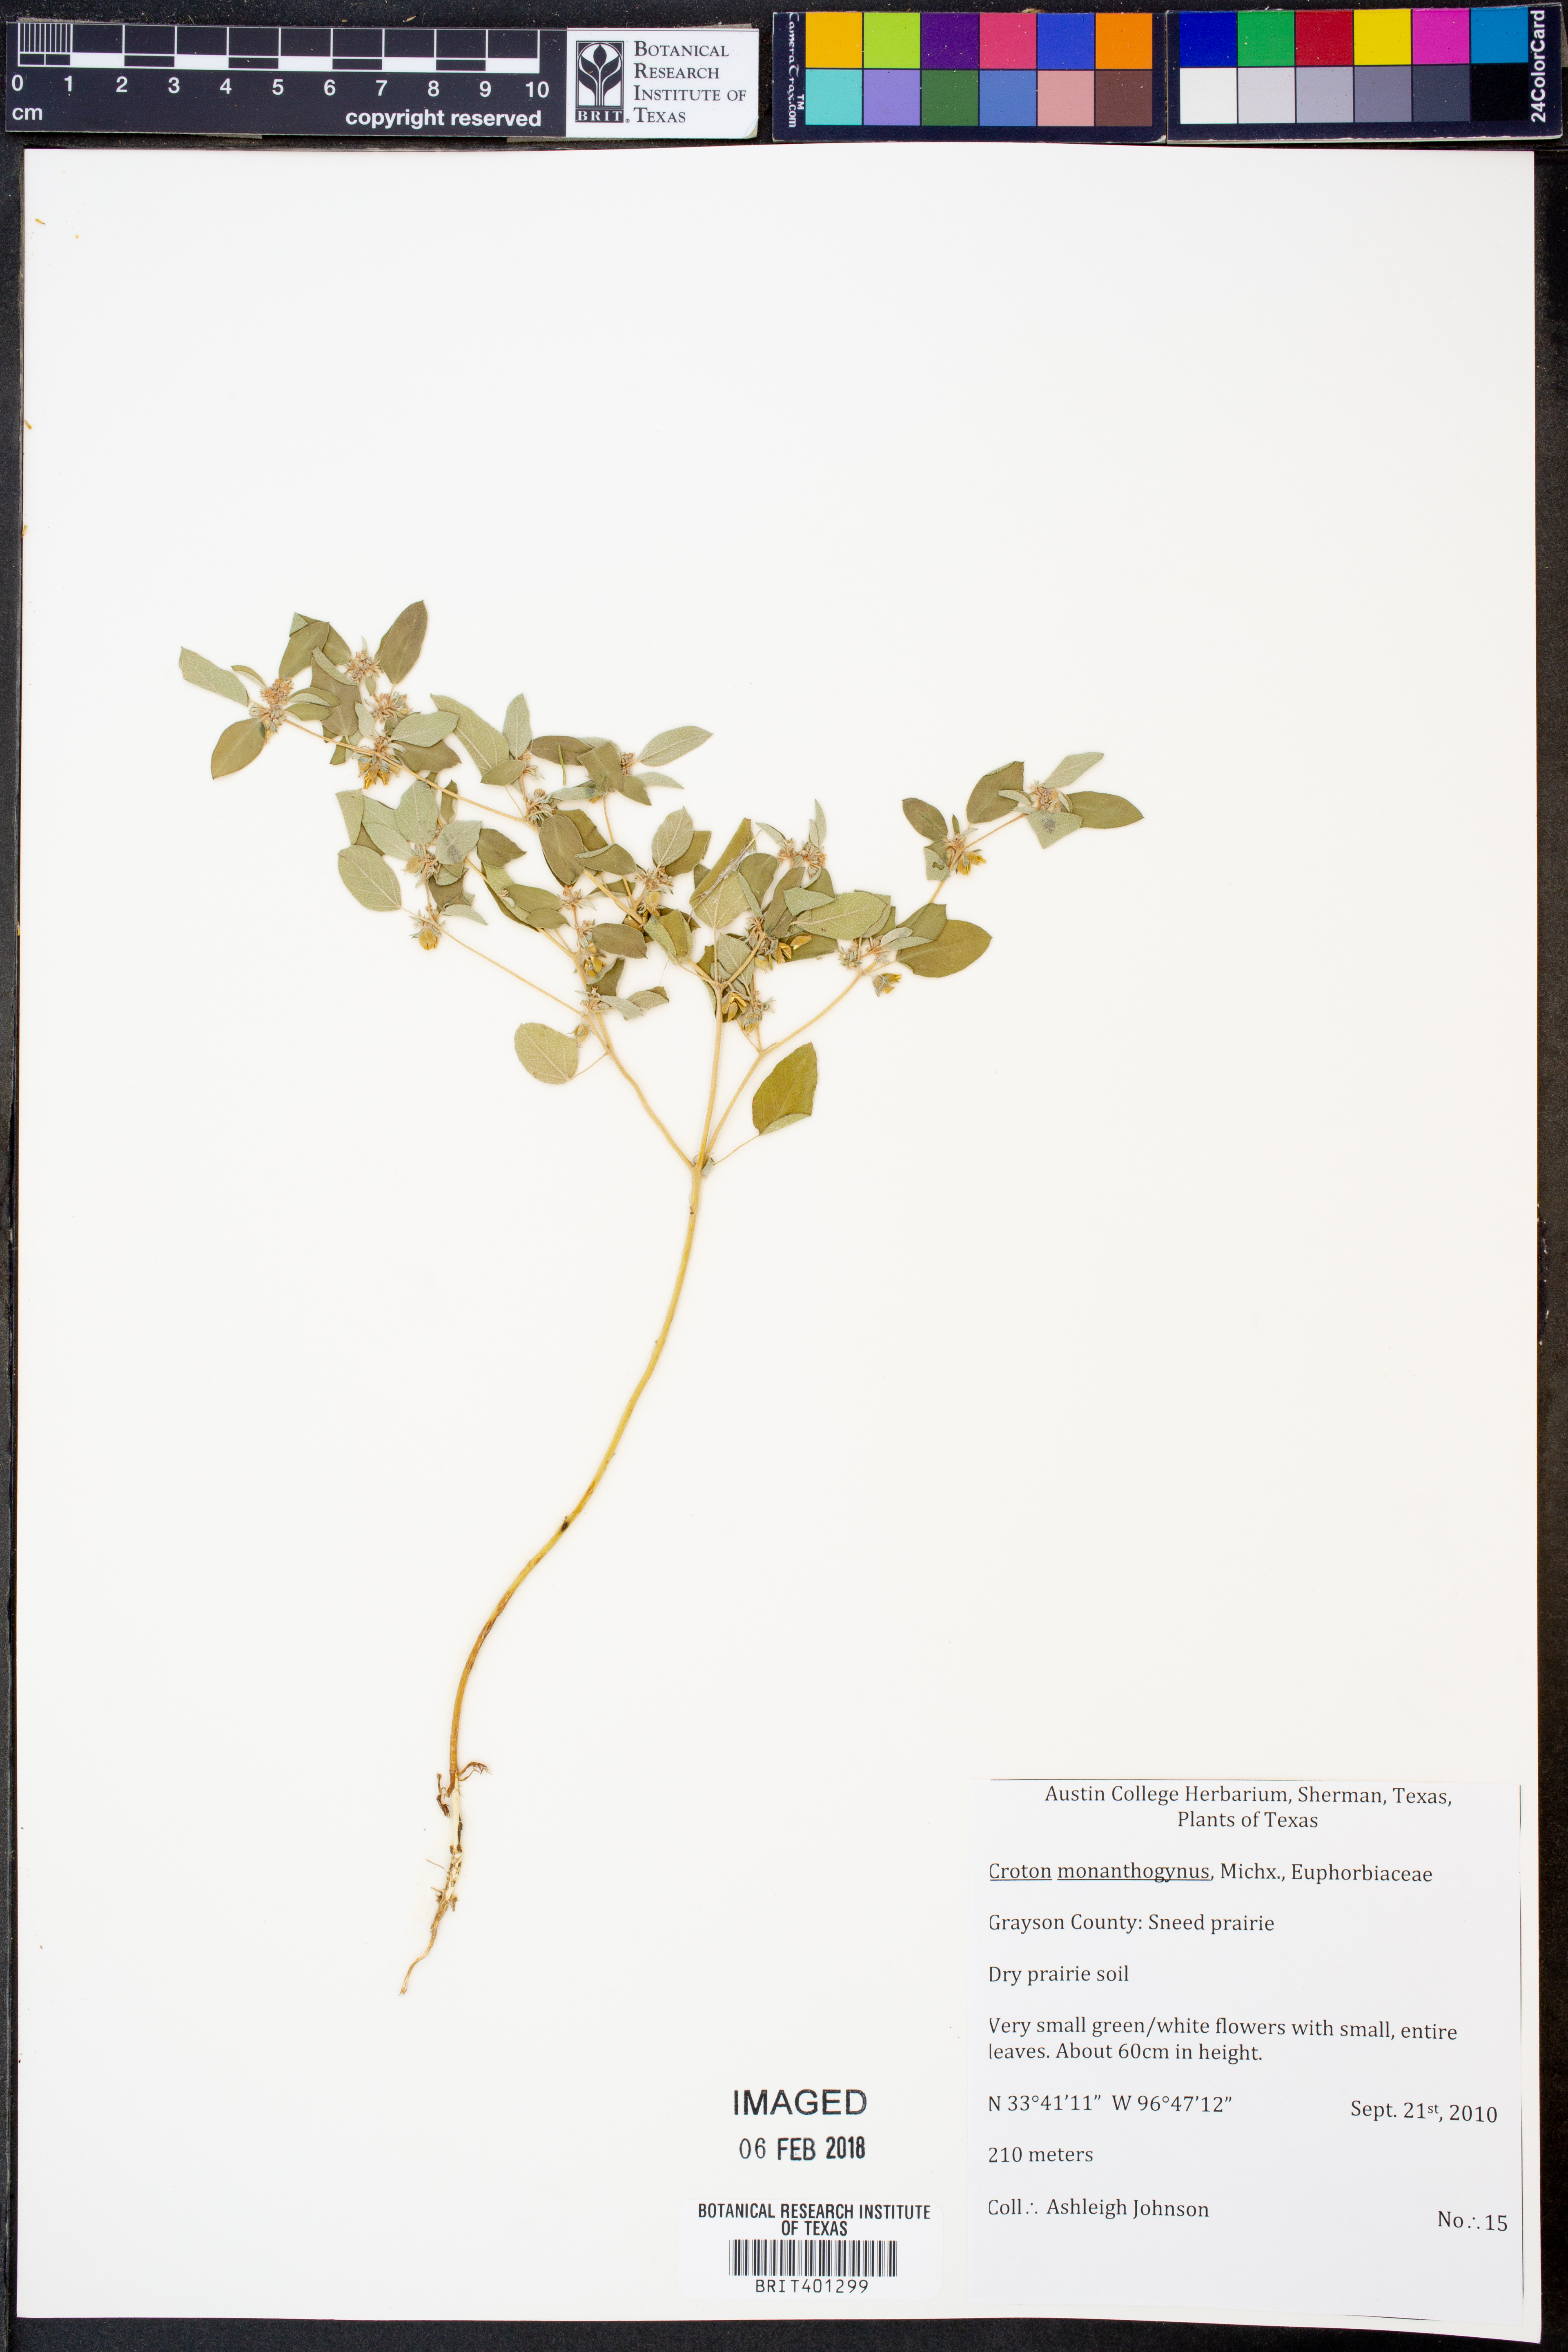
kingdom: Plantae
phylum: Tracheophyta
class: Magnoliopsida
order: Malpighiales
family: Euphorbiaceae
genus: Croton
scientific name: Croton monanthogynus
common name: One-seed croton
